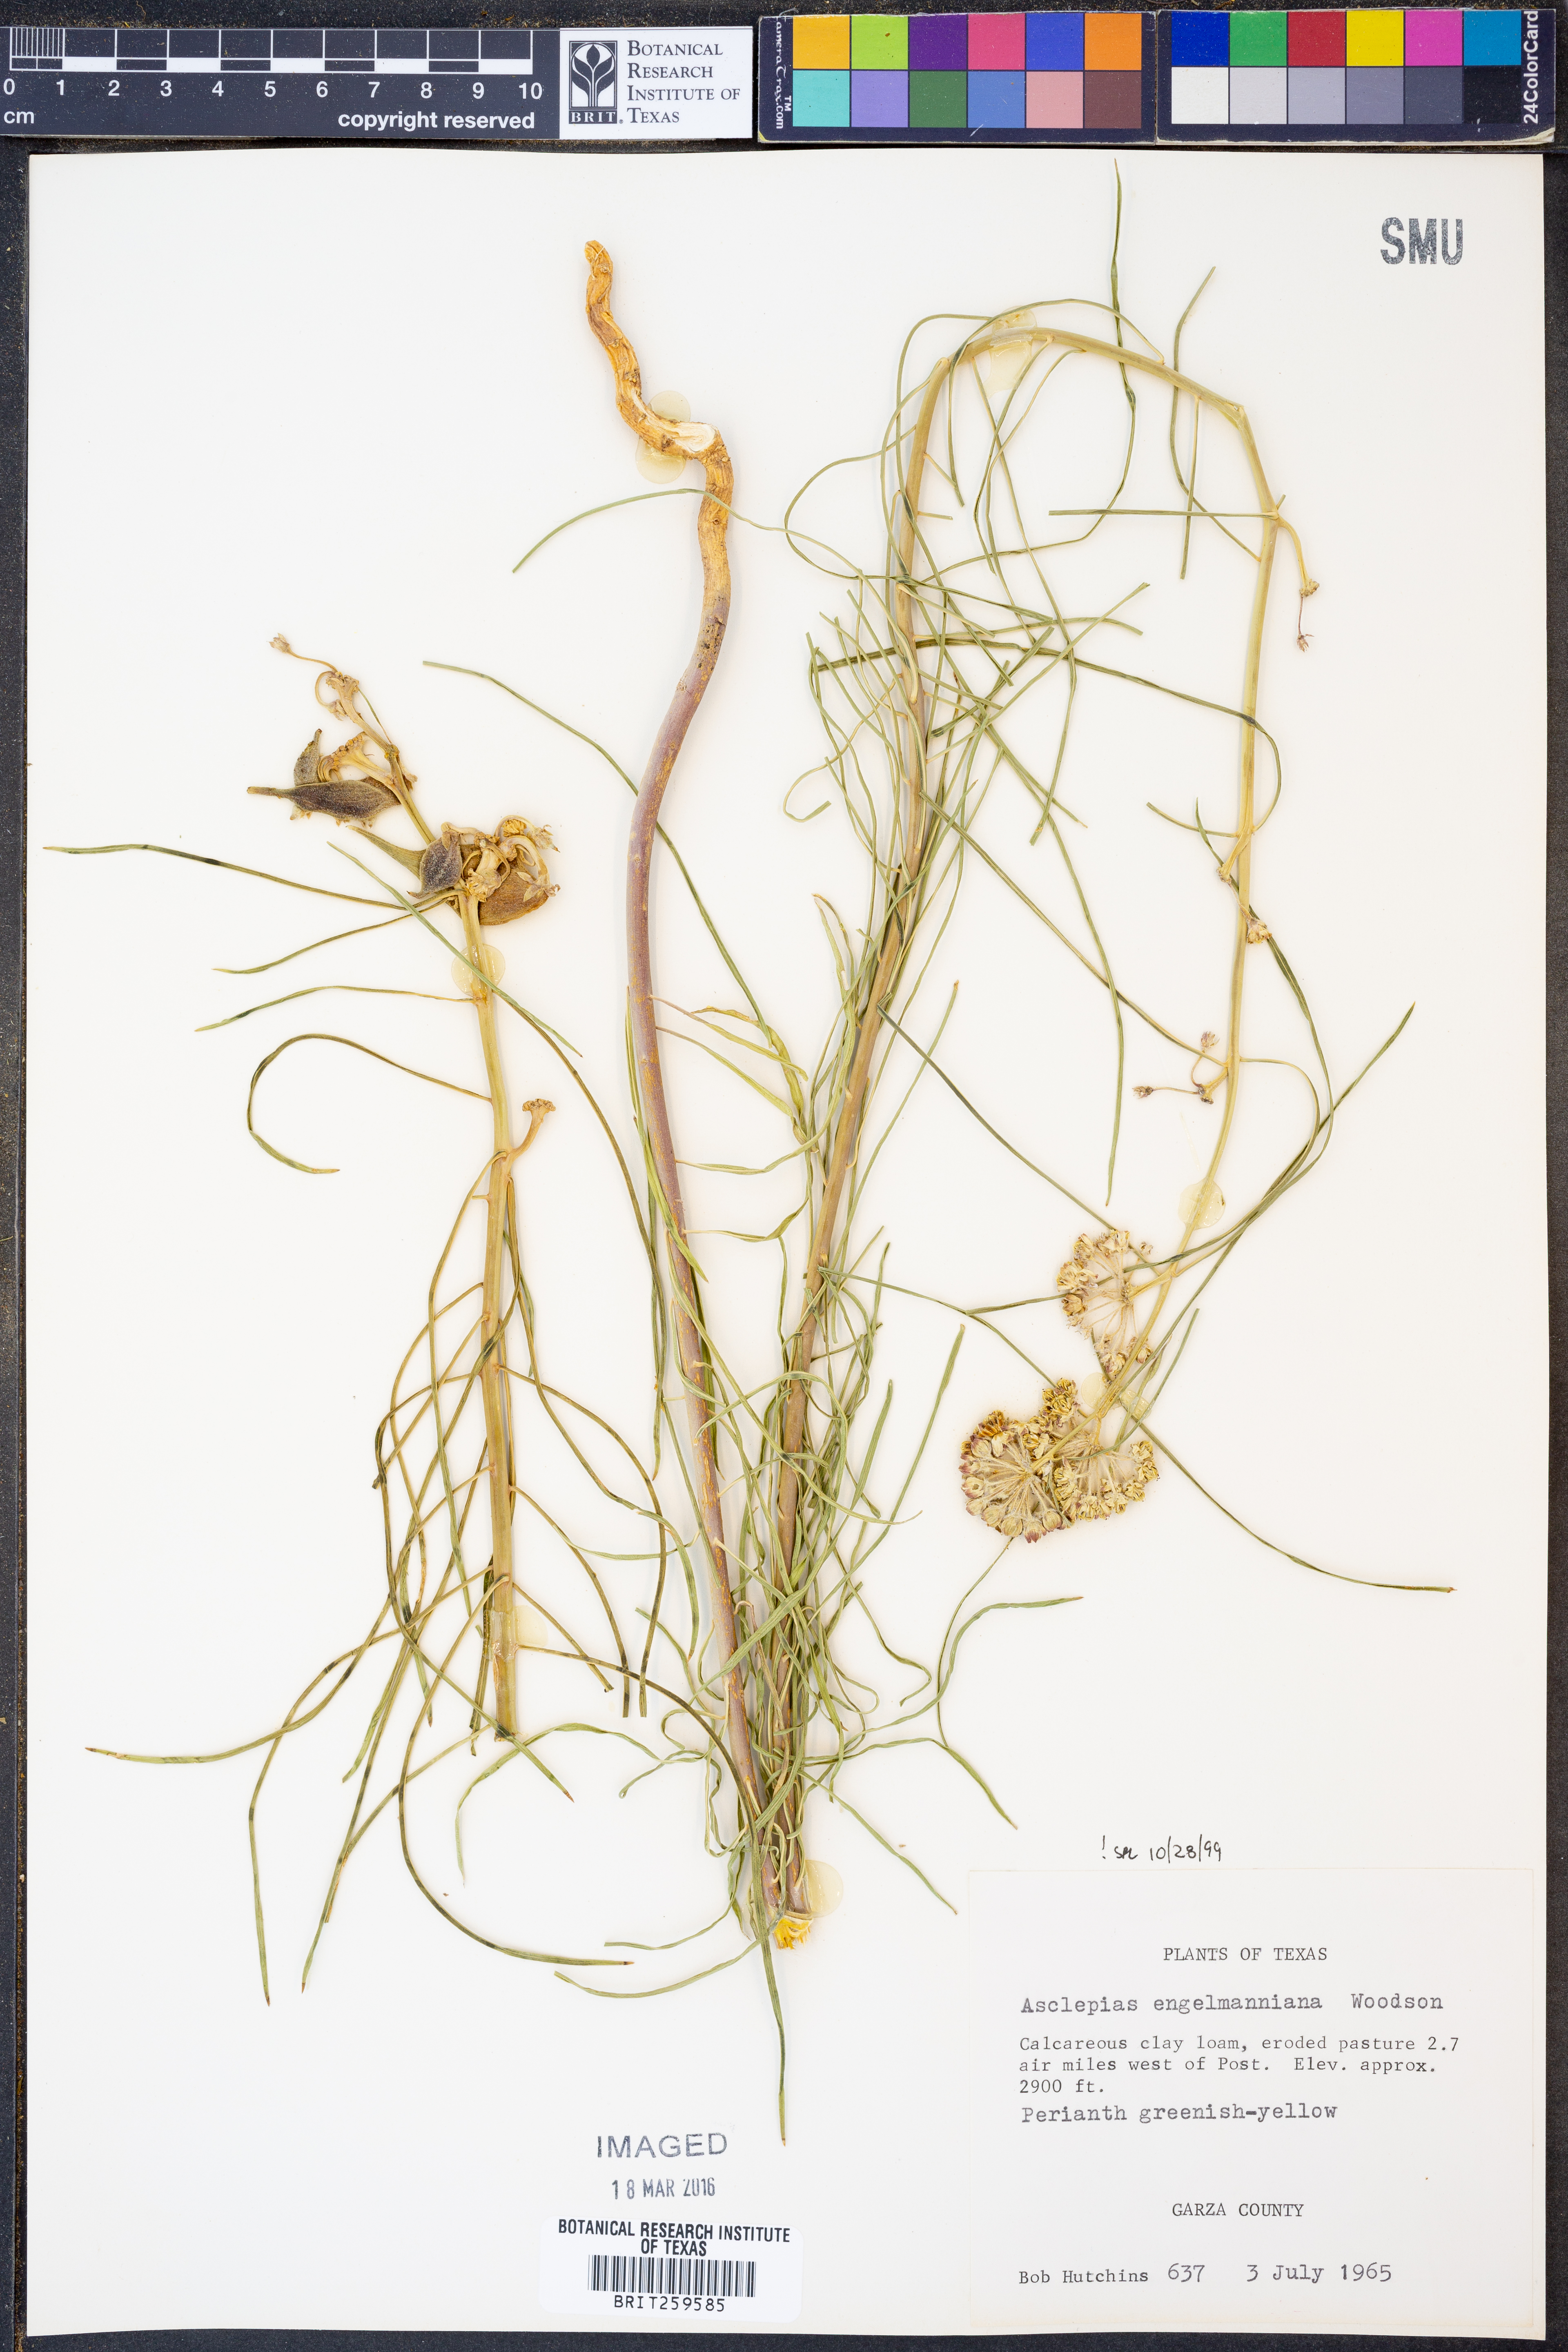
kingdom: Plantae
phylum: Tracheophyta
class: Magnoliopsida
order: Gentianales
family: Apocynaceae
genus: Asclepias
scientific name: Asclepias engelmanniana
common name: Engelmann's milkweed
